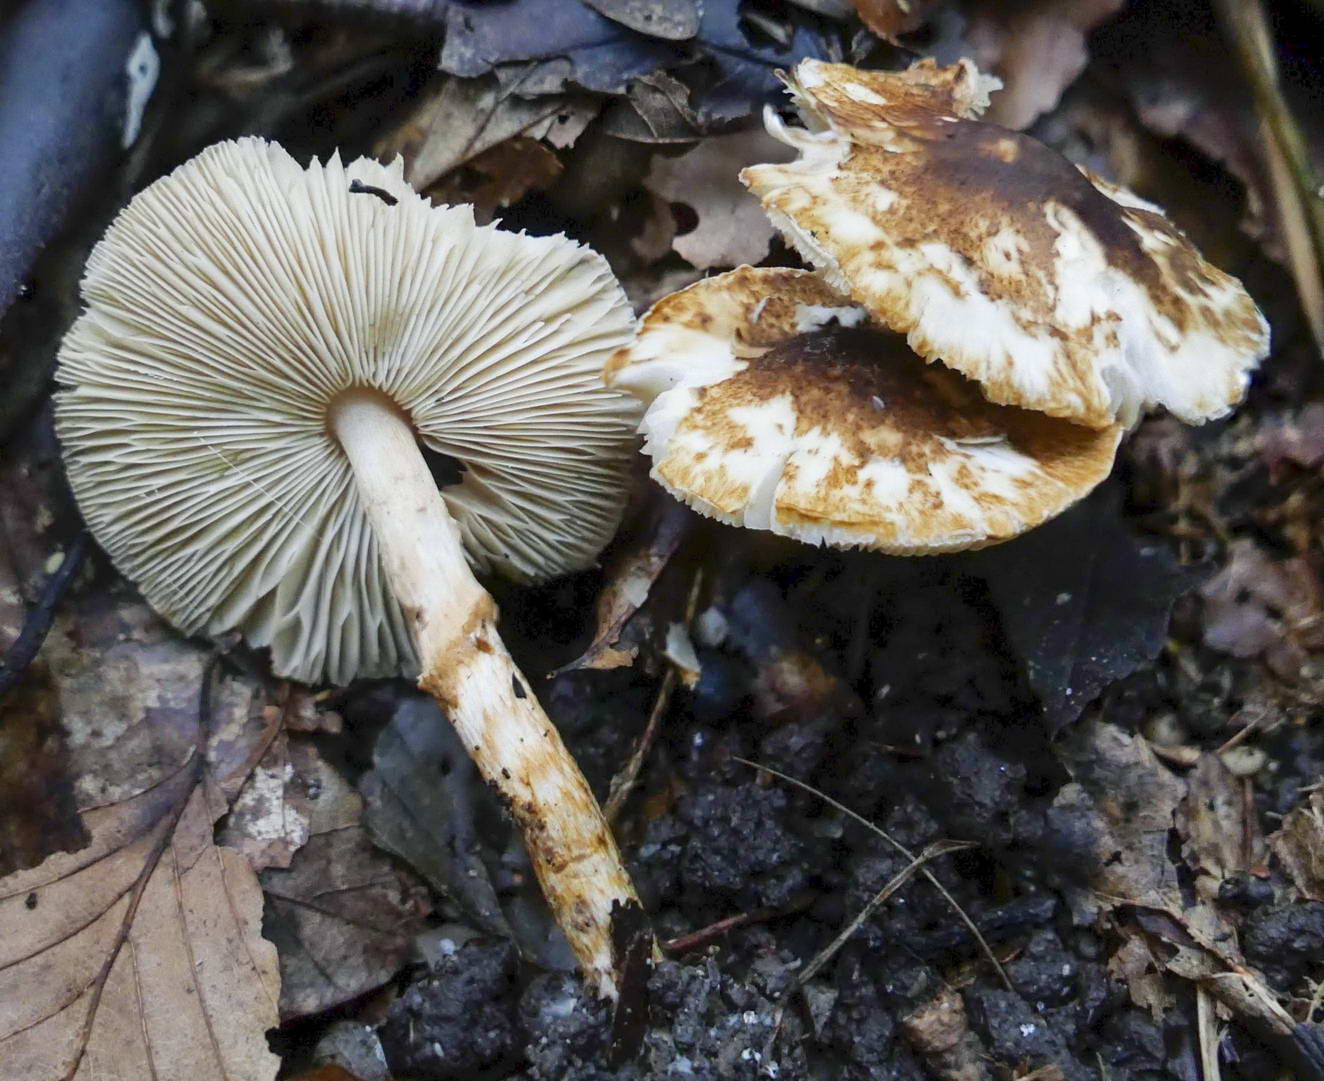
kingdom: Fungi
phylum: Basidiomycota
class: Agaricomycetes
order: Agaricales
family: Agaricaceae
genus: Lepiota
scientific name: Lepiota castanea
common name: kastaniebrun parasolhat
